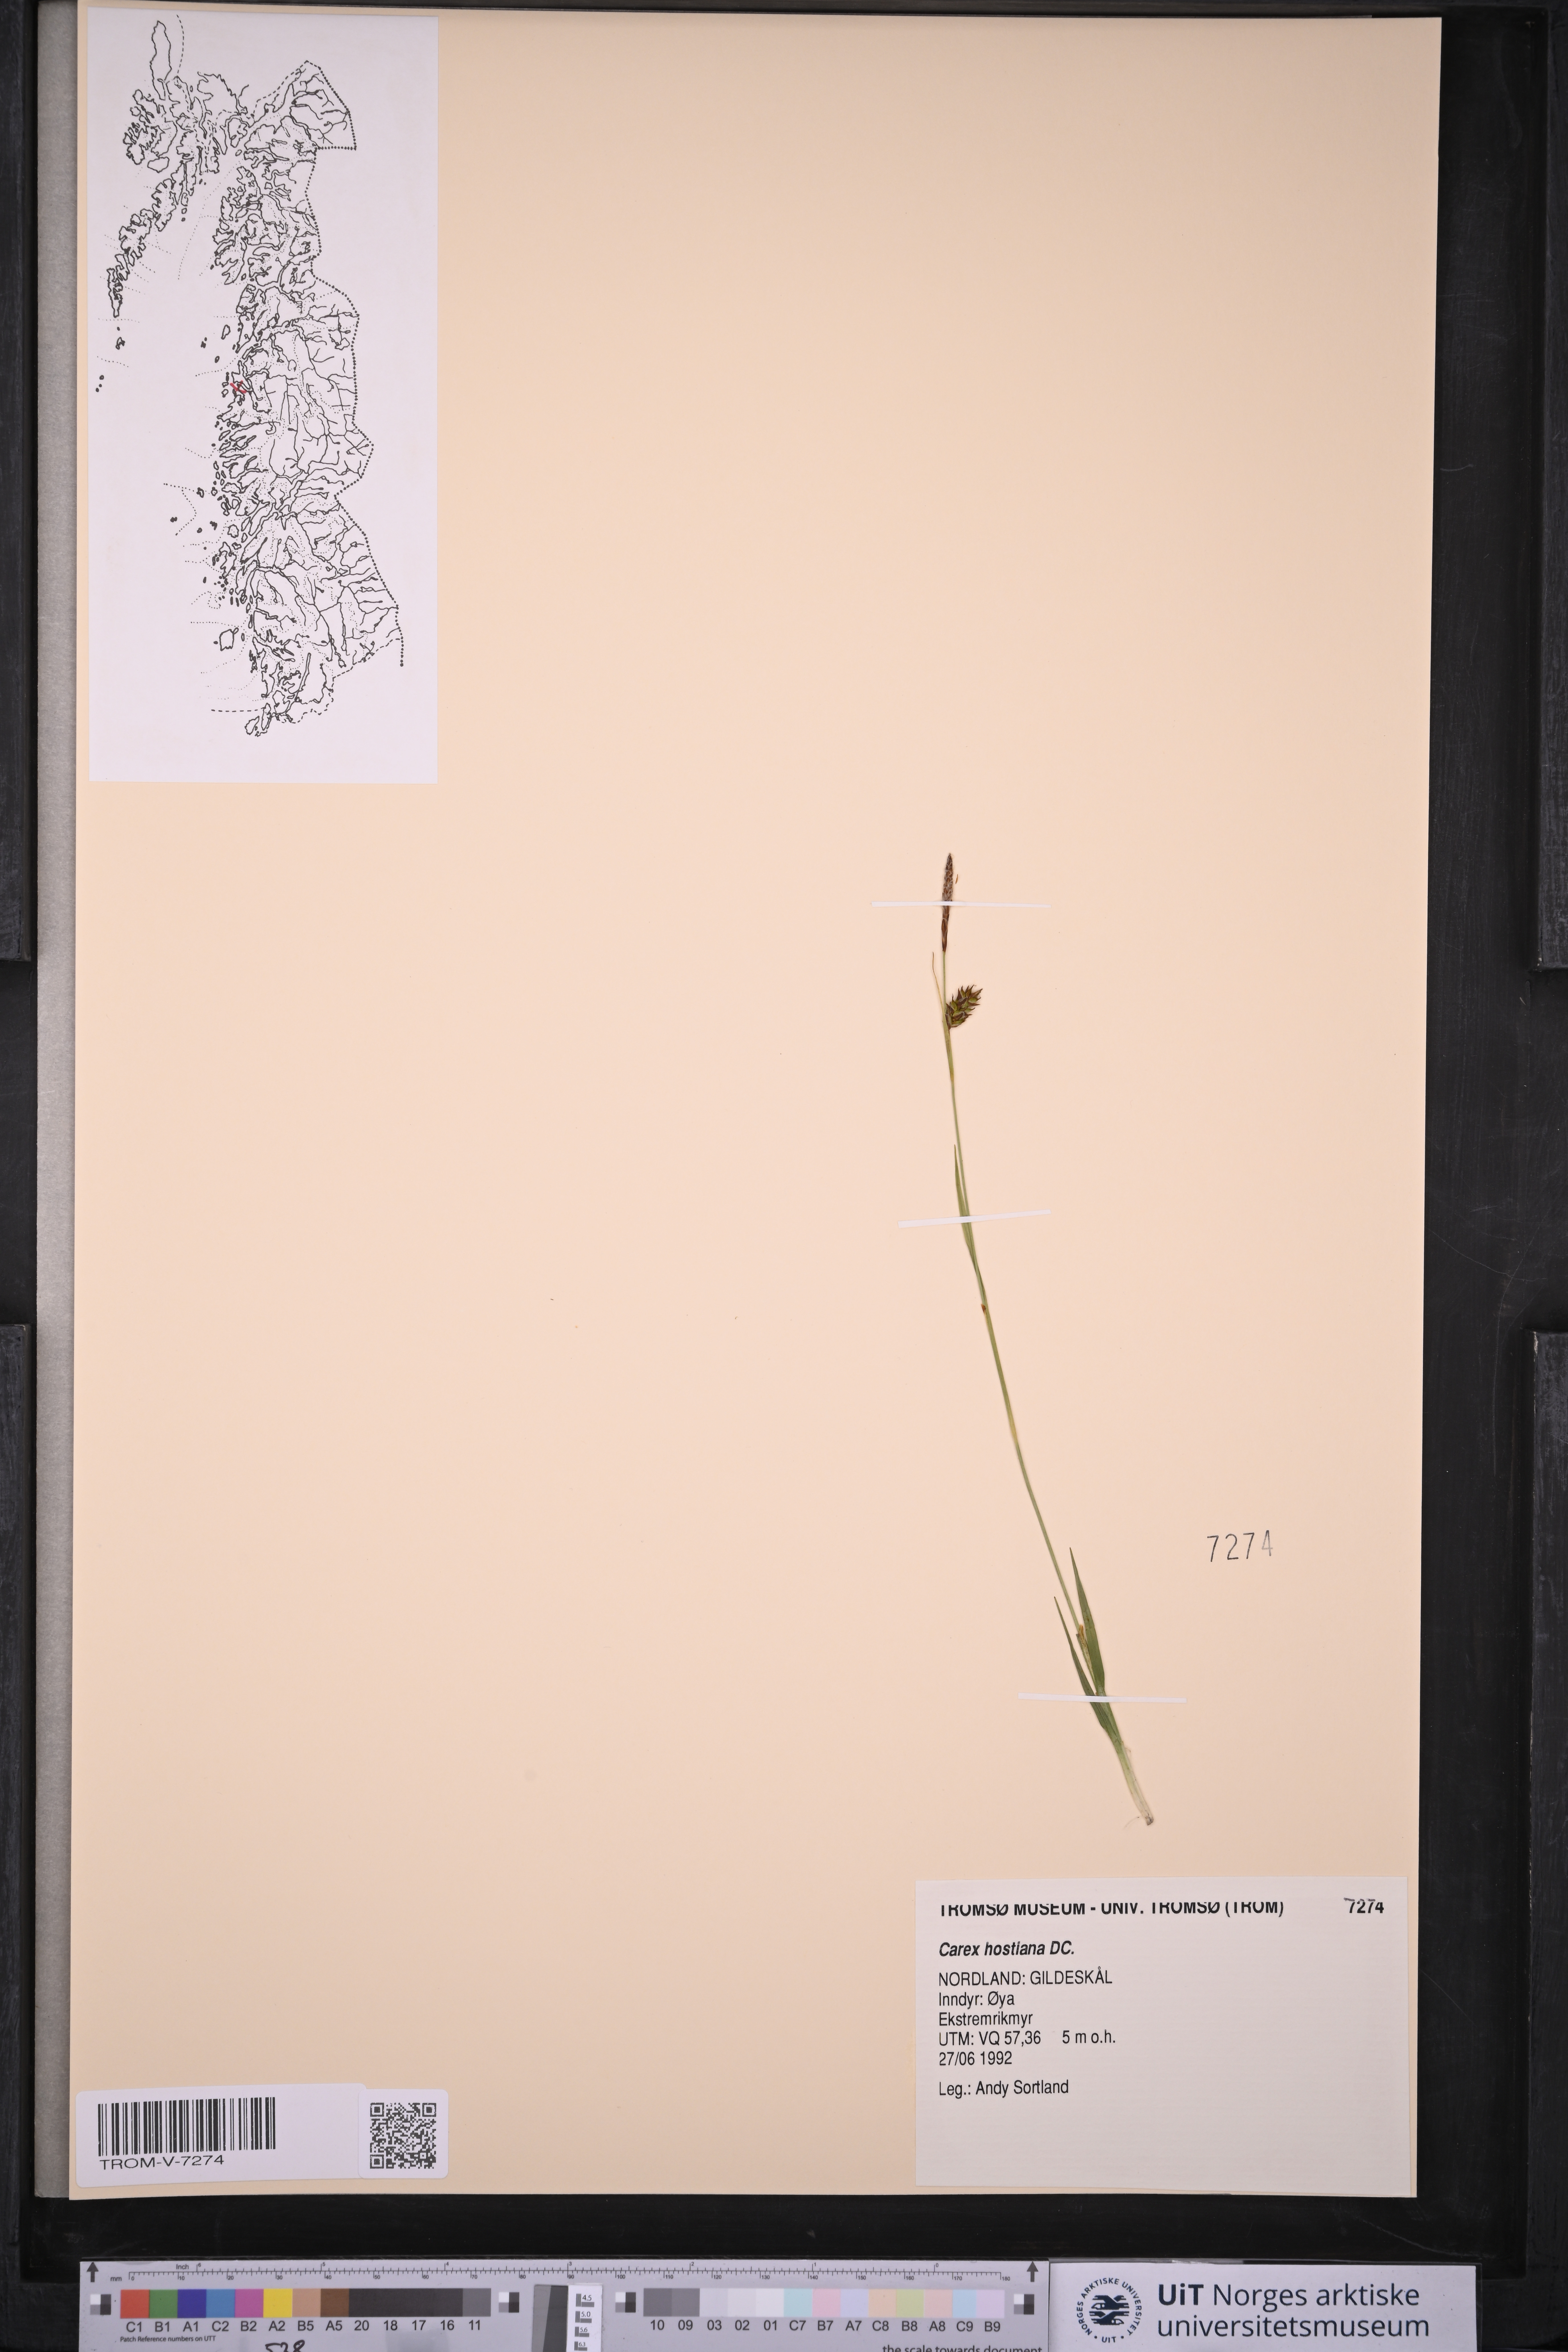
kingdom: Plantae
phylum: Tracheophyta
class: Liliopsida
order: Poales
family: Cyperaceae
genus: Carex
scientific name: Carex hostiana
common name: Tawny sedge
